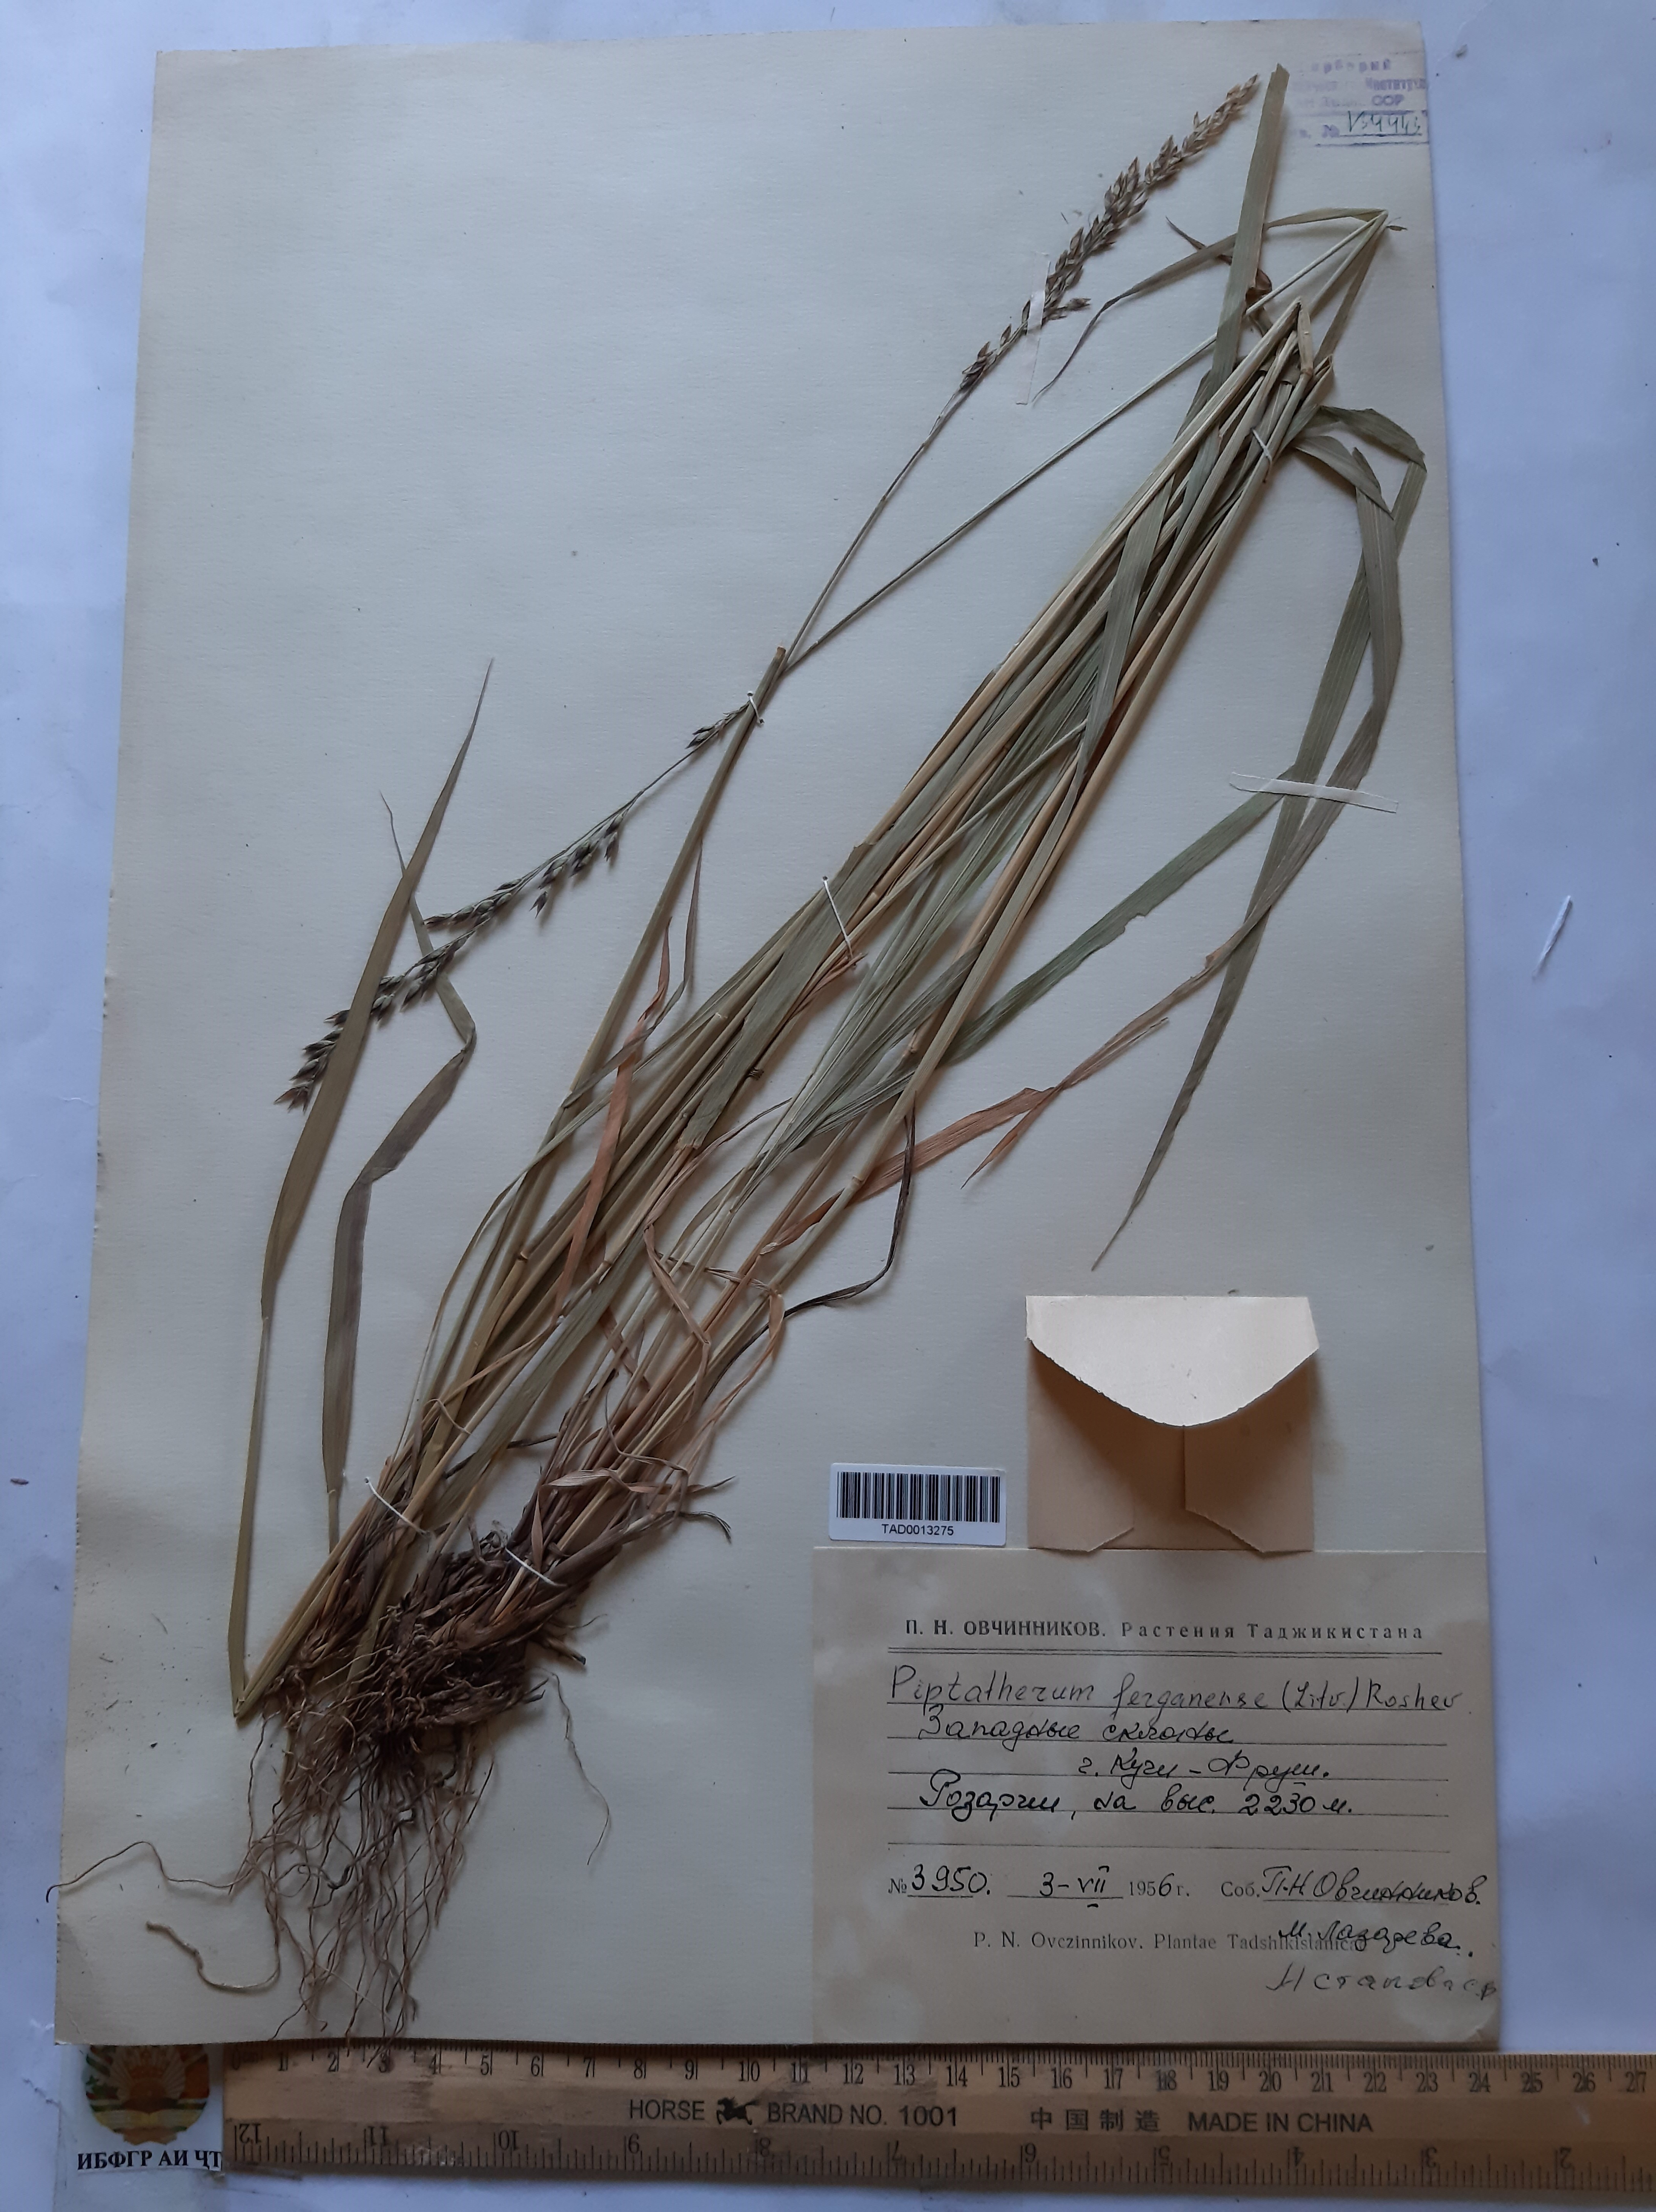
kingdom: Plantae
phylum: Tracheophyta
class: Liliopsida
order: Poales
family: Poaceae
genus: Piptatherum
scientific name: Piptatherum ferganense
